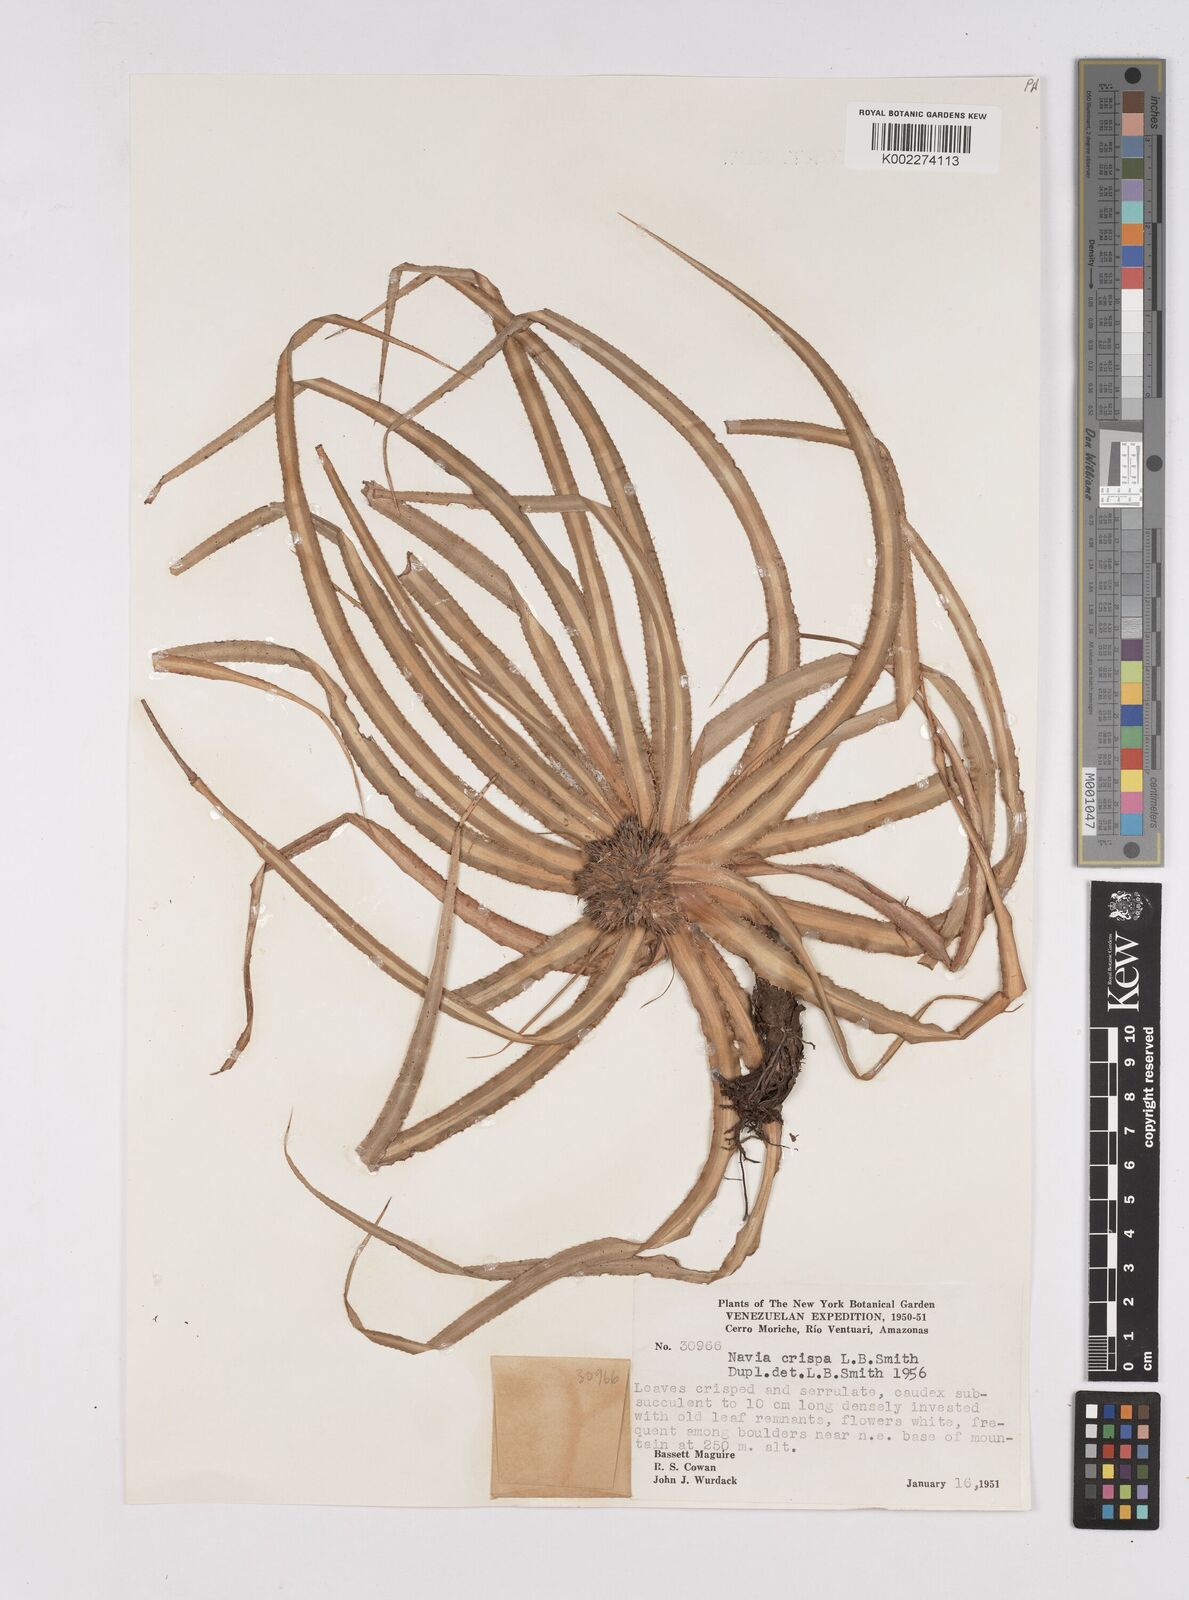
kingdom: Plantae
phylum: Tracheophyta
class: Liliopsida
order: Poales
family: Bromeliaceae
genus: Navia
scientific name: Navia crispa
